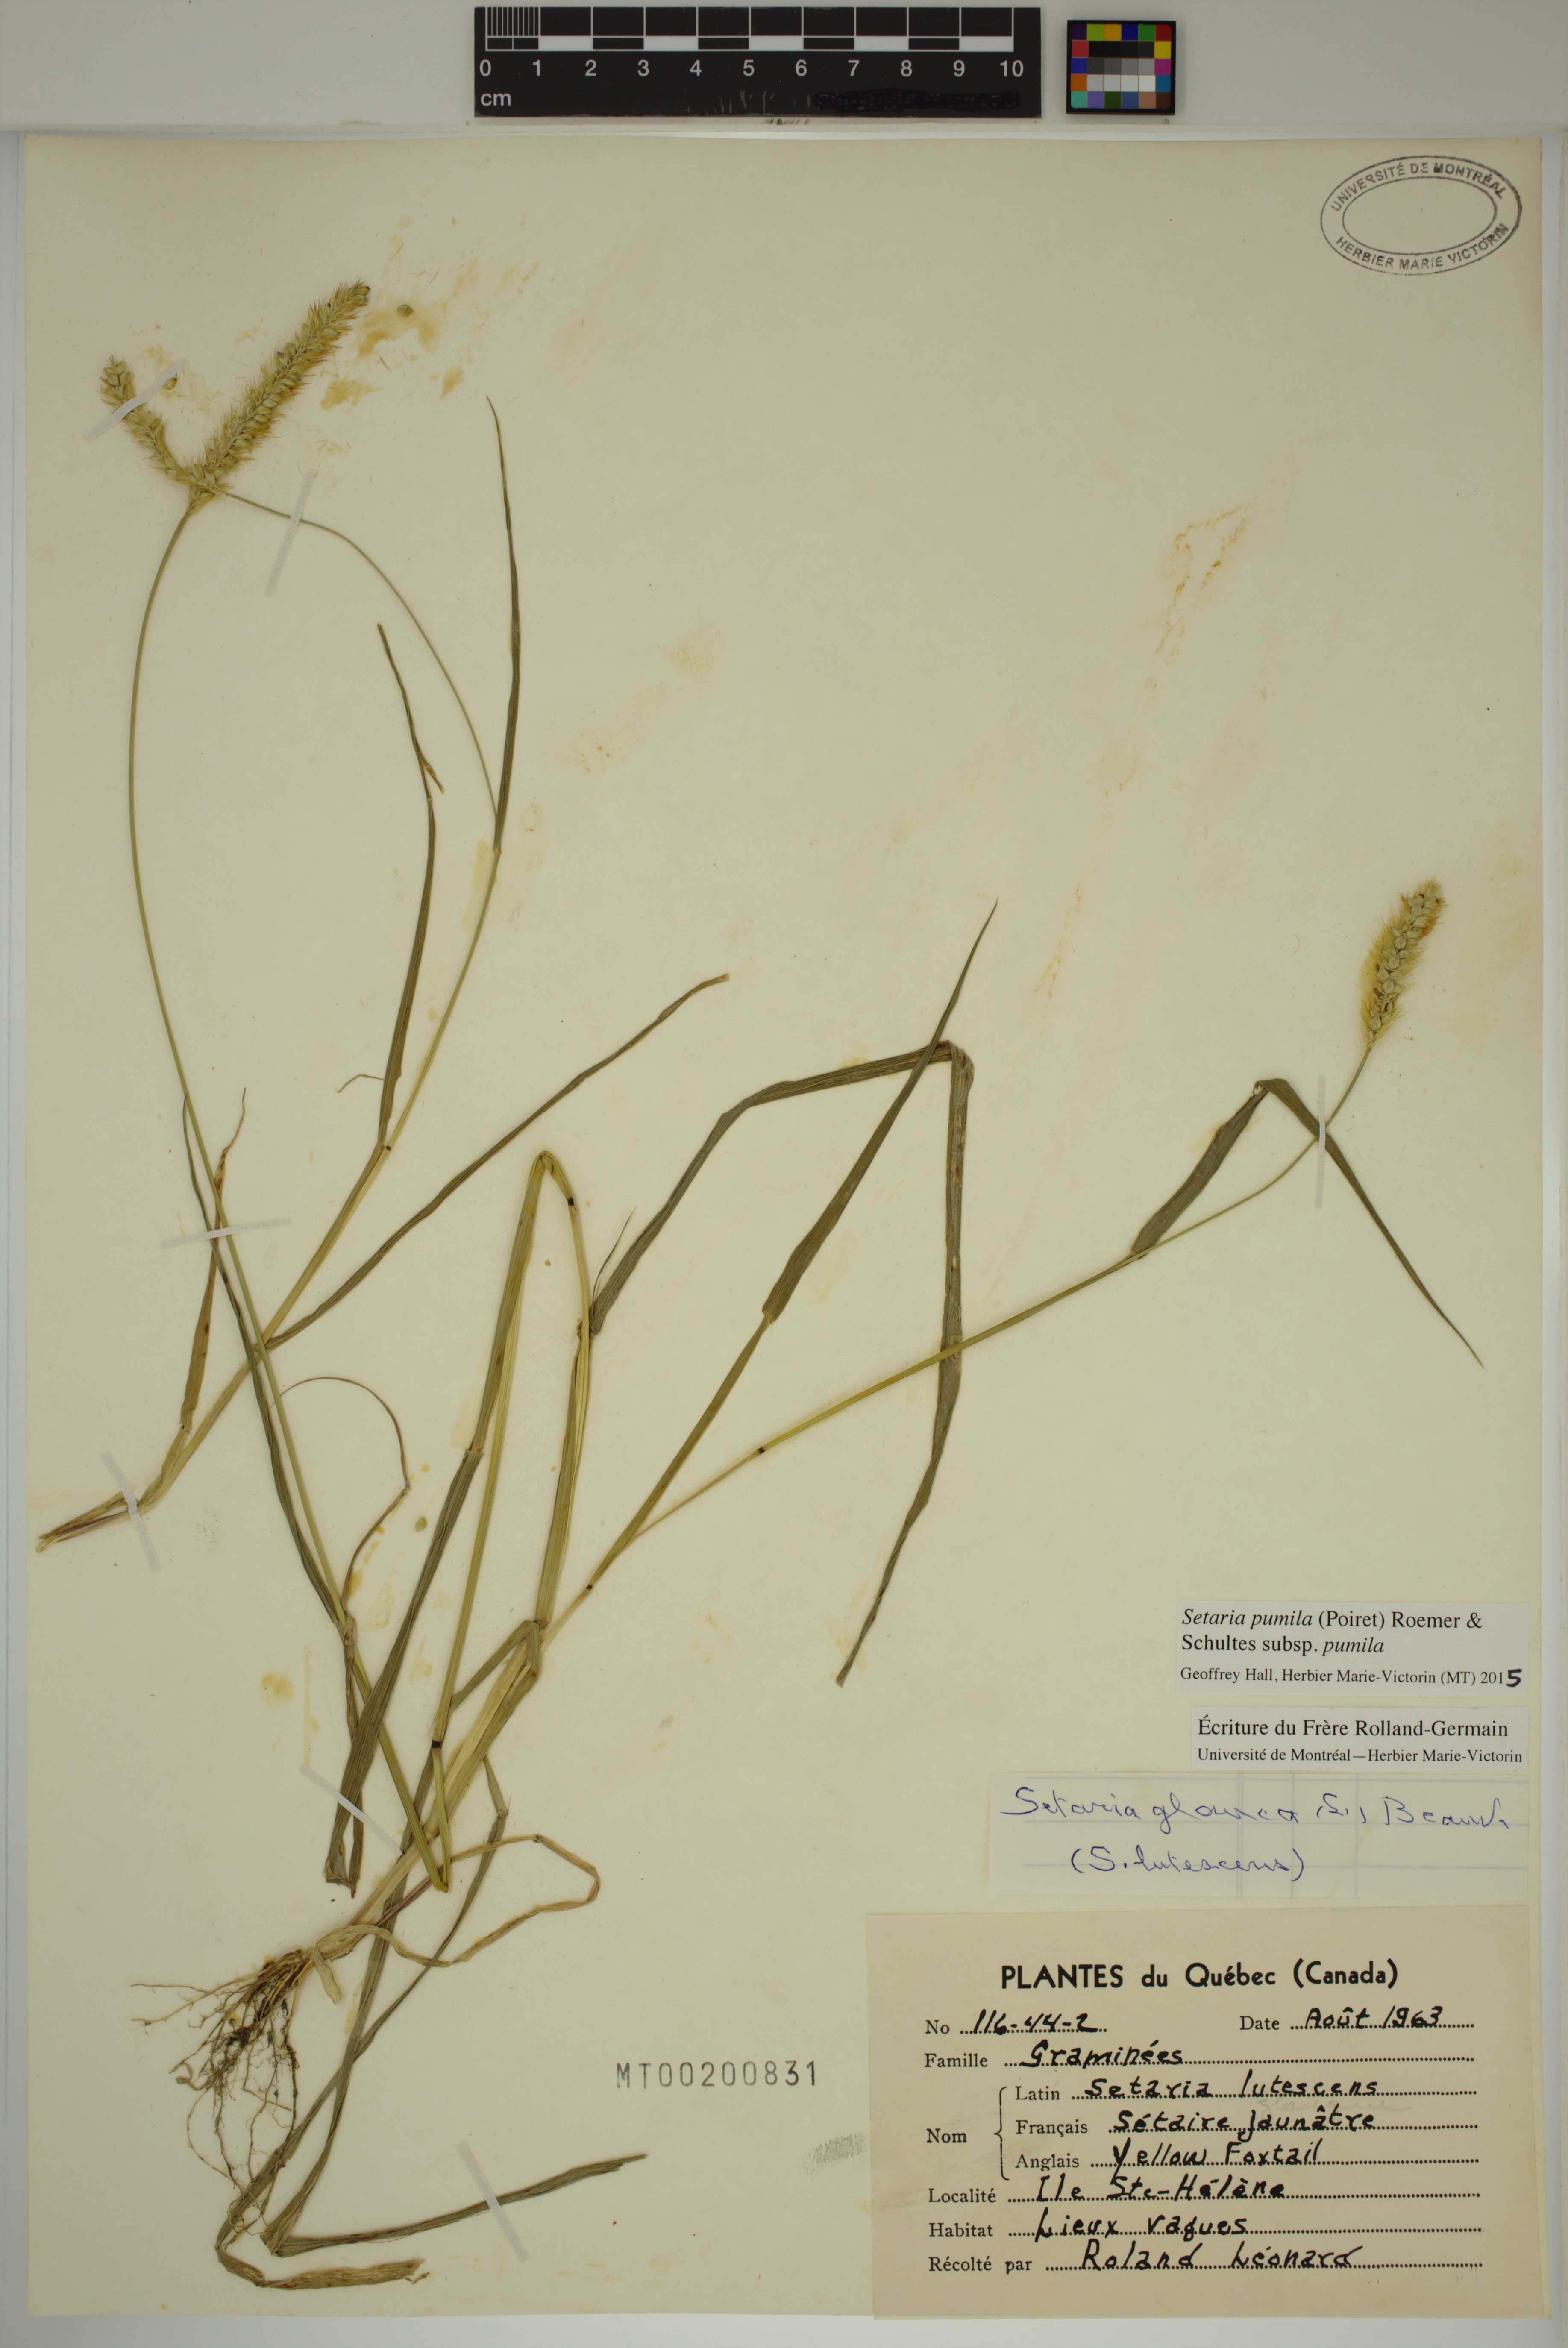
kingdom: Plantae
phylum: Tracheophyta
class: Liliopsida
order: Poales
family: Poaceae
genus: Setaria
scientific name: Setaria pumila
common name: Yellow bristle-grass
